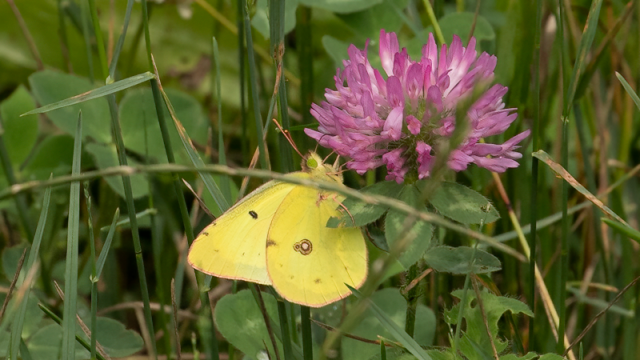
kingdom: Animalia
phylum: Arthropoda
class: Insecta
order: Lepidoptera
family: Pieridae
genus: Colias
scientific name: Colias philodice
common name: Clouded Sulphur
